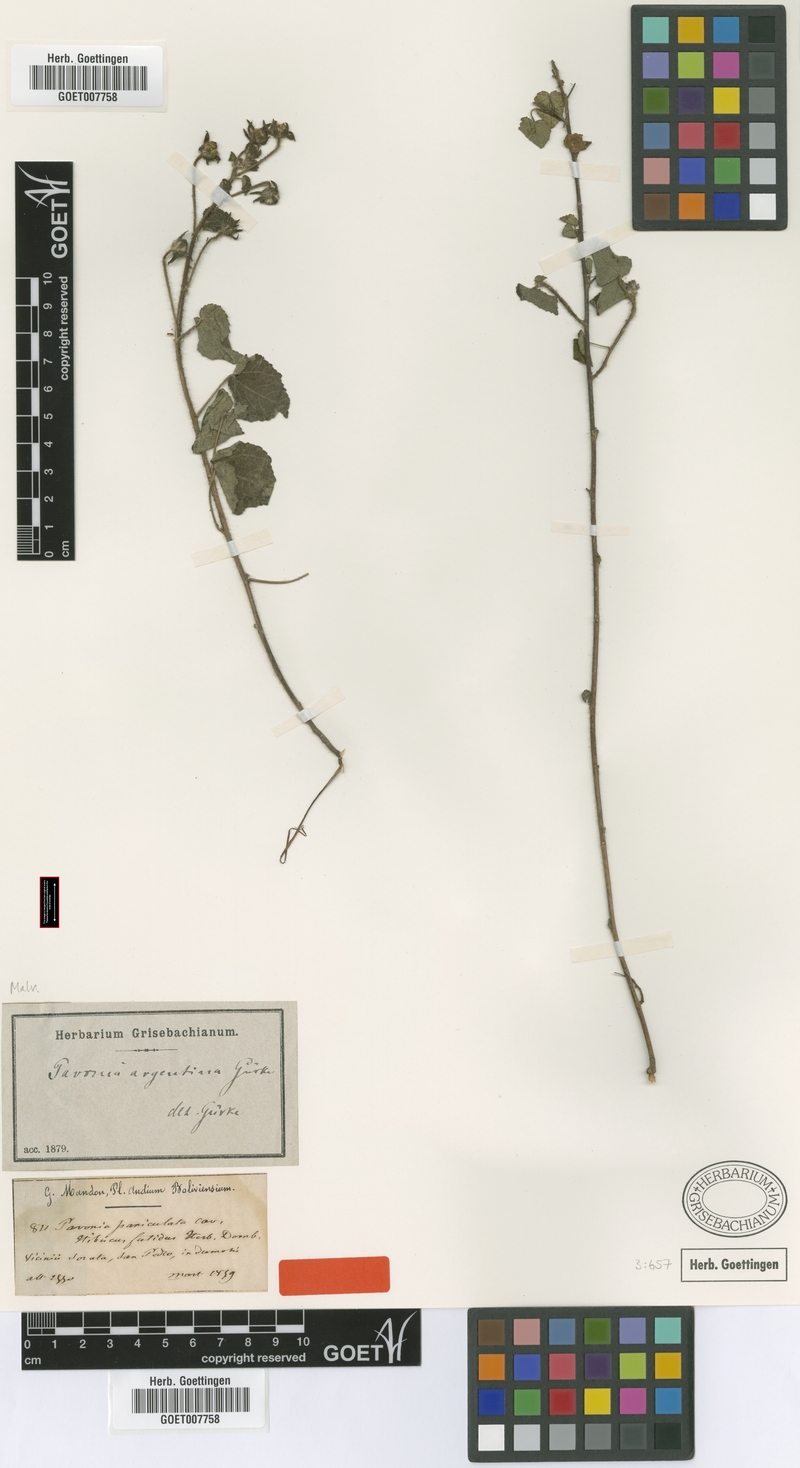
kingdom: Plantae
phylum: Tracheophyta
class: Magnoliopsida
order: Malvales
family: Malvaceae
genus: Pavonia
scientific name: Pavonia argentina
